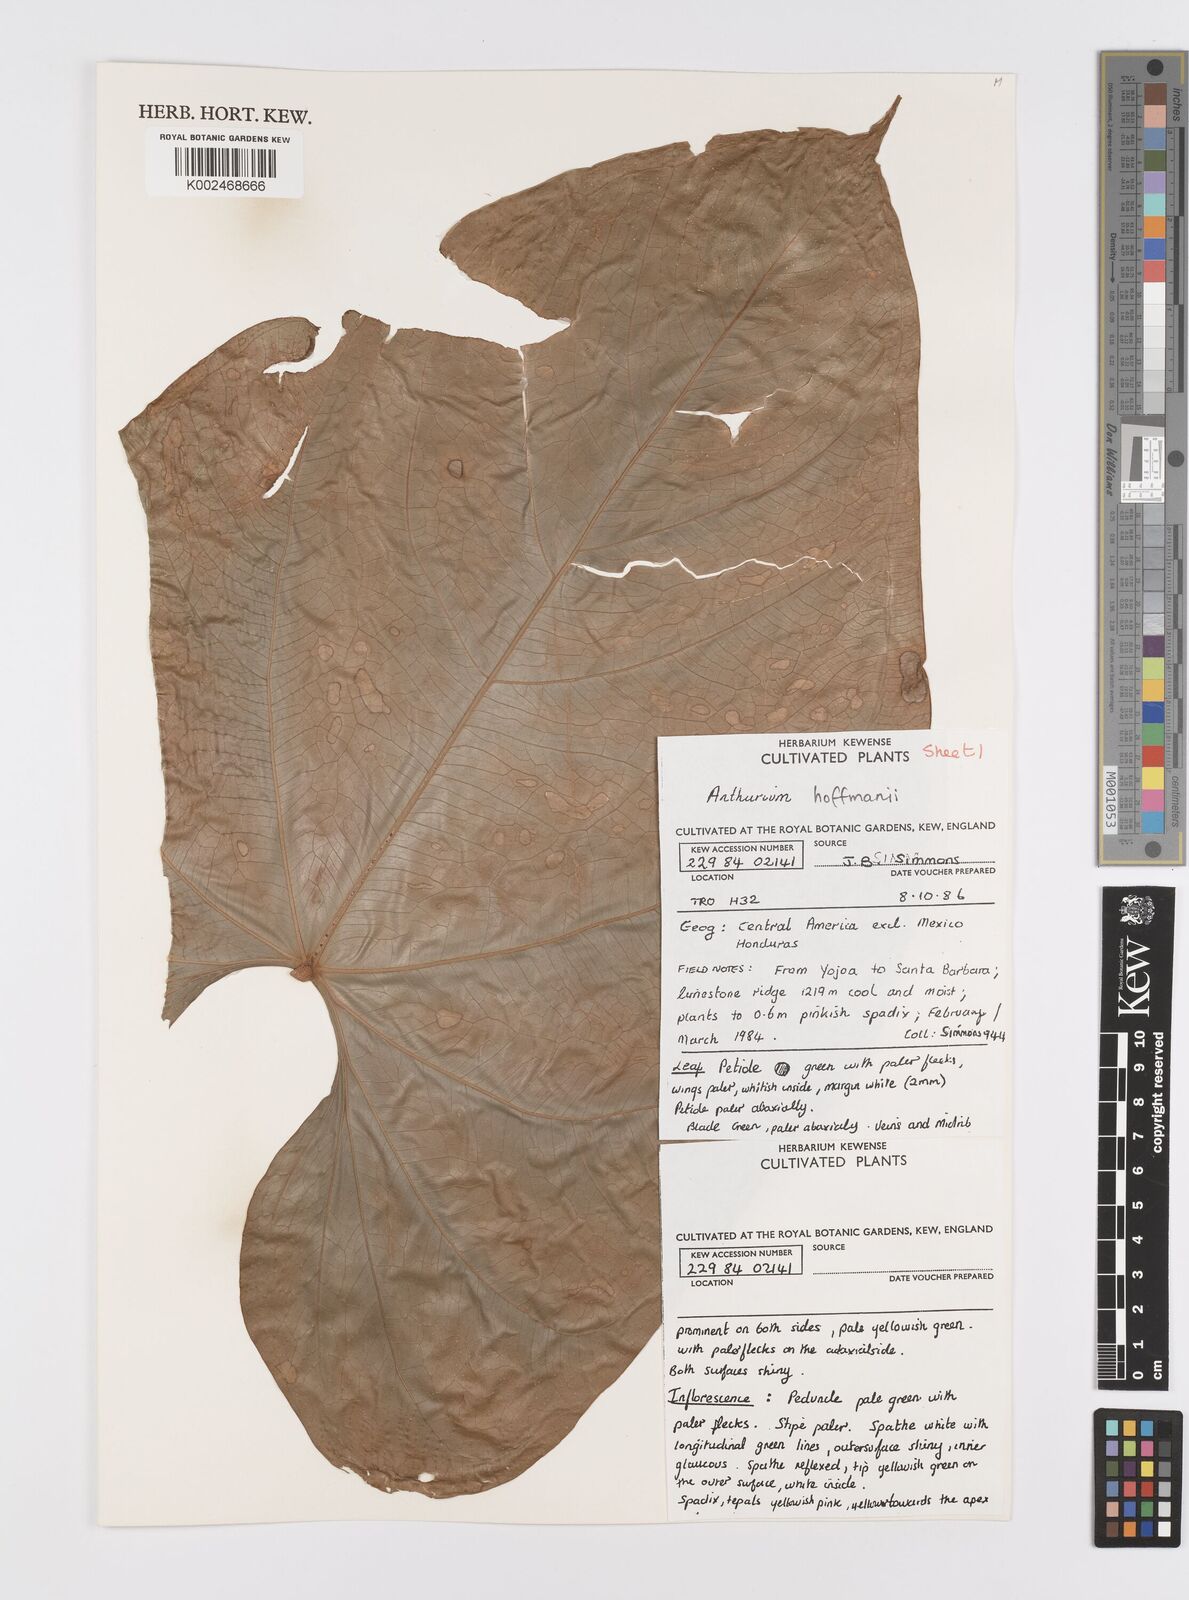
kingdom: Plantae
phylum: Tracheophyta
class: Liliopsida
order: Alismatales
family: Araceae
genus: Anthurium
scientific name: Anthurium hoffmannii
